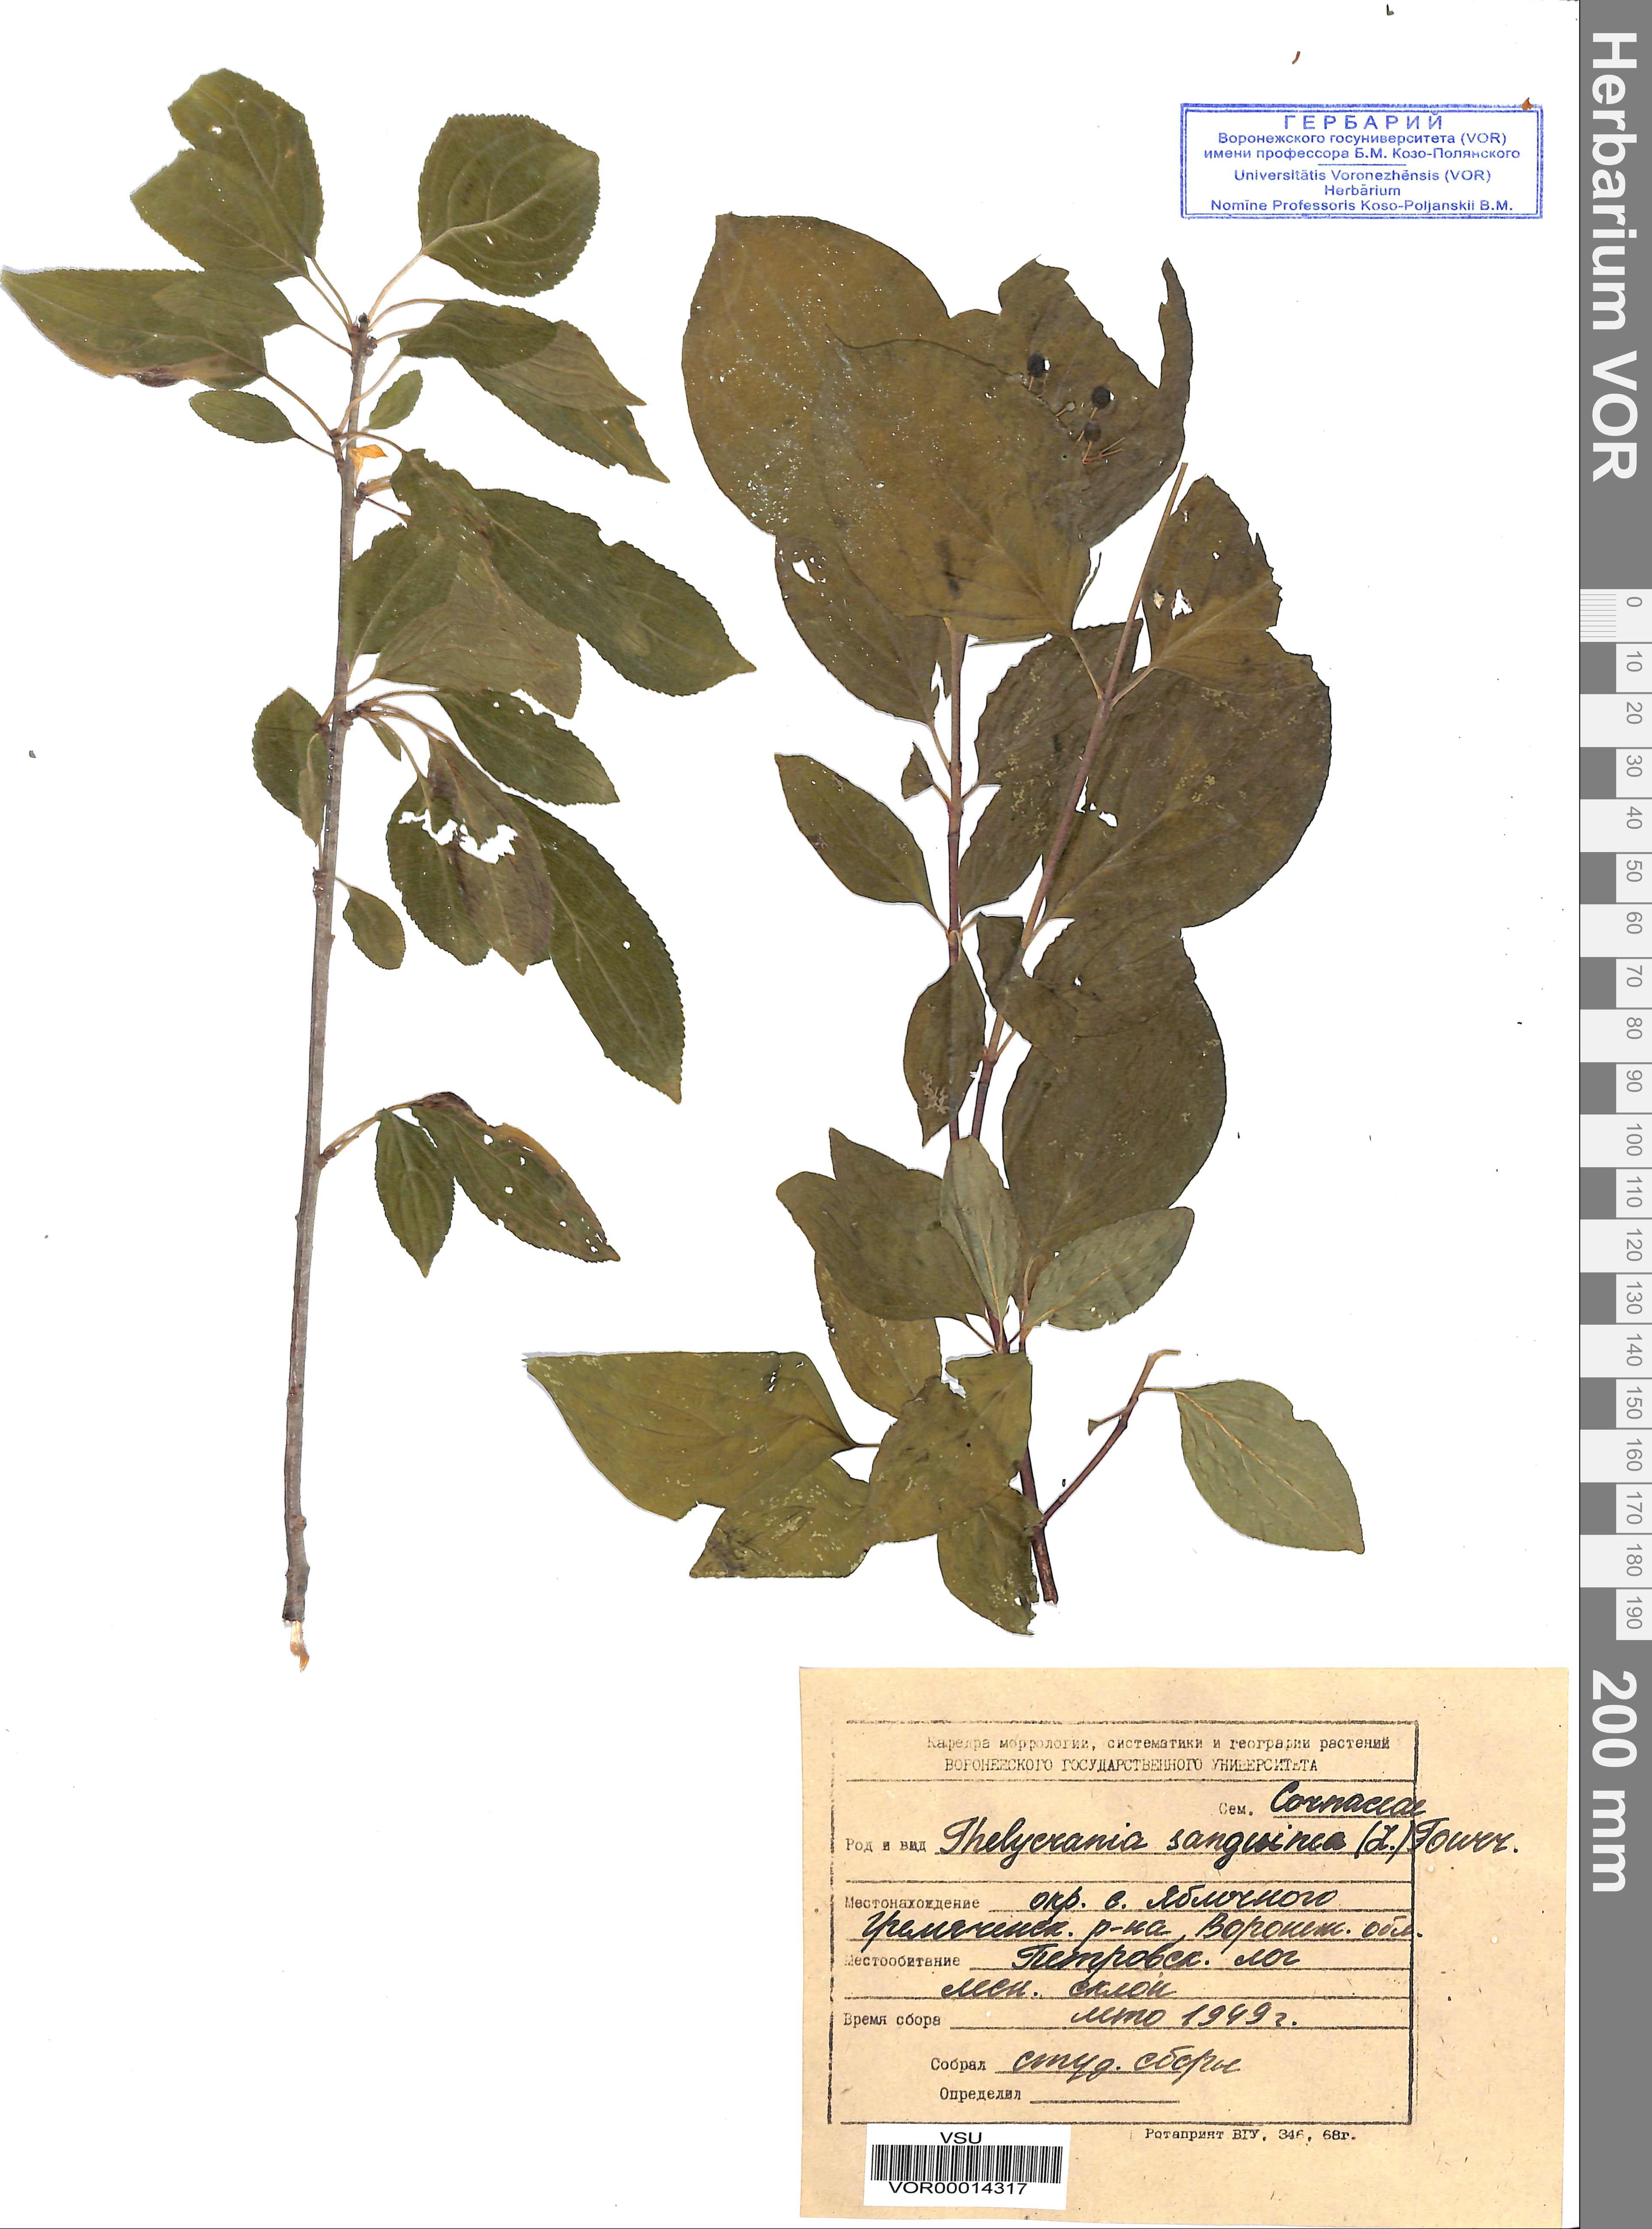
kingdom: Plantae
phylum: Tracheophyta
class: Magnoliopsida
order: Cornales
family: Cornaceae
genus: Cornus
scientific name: Cornus sanguinea
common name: Dogwood
